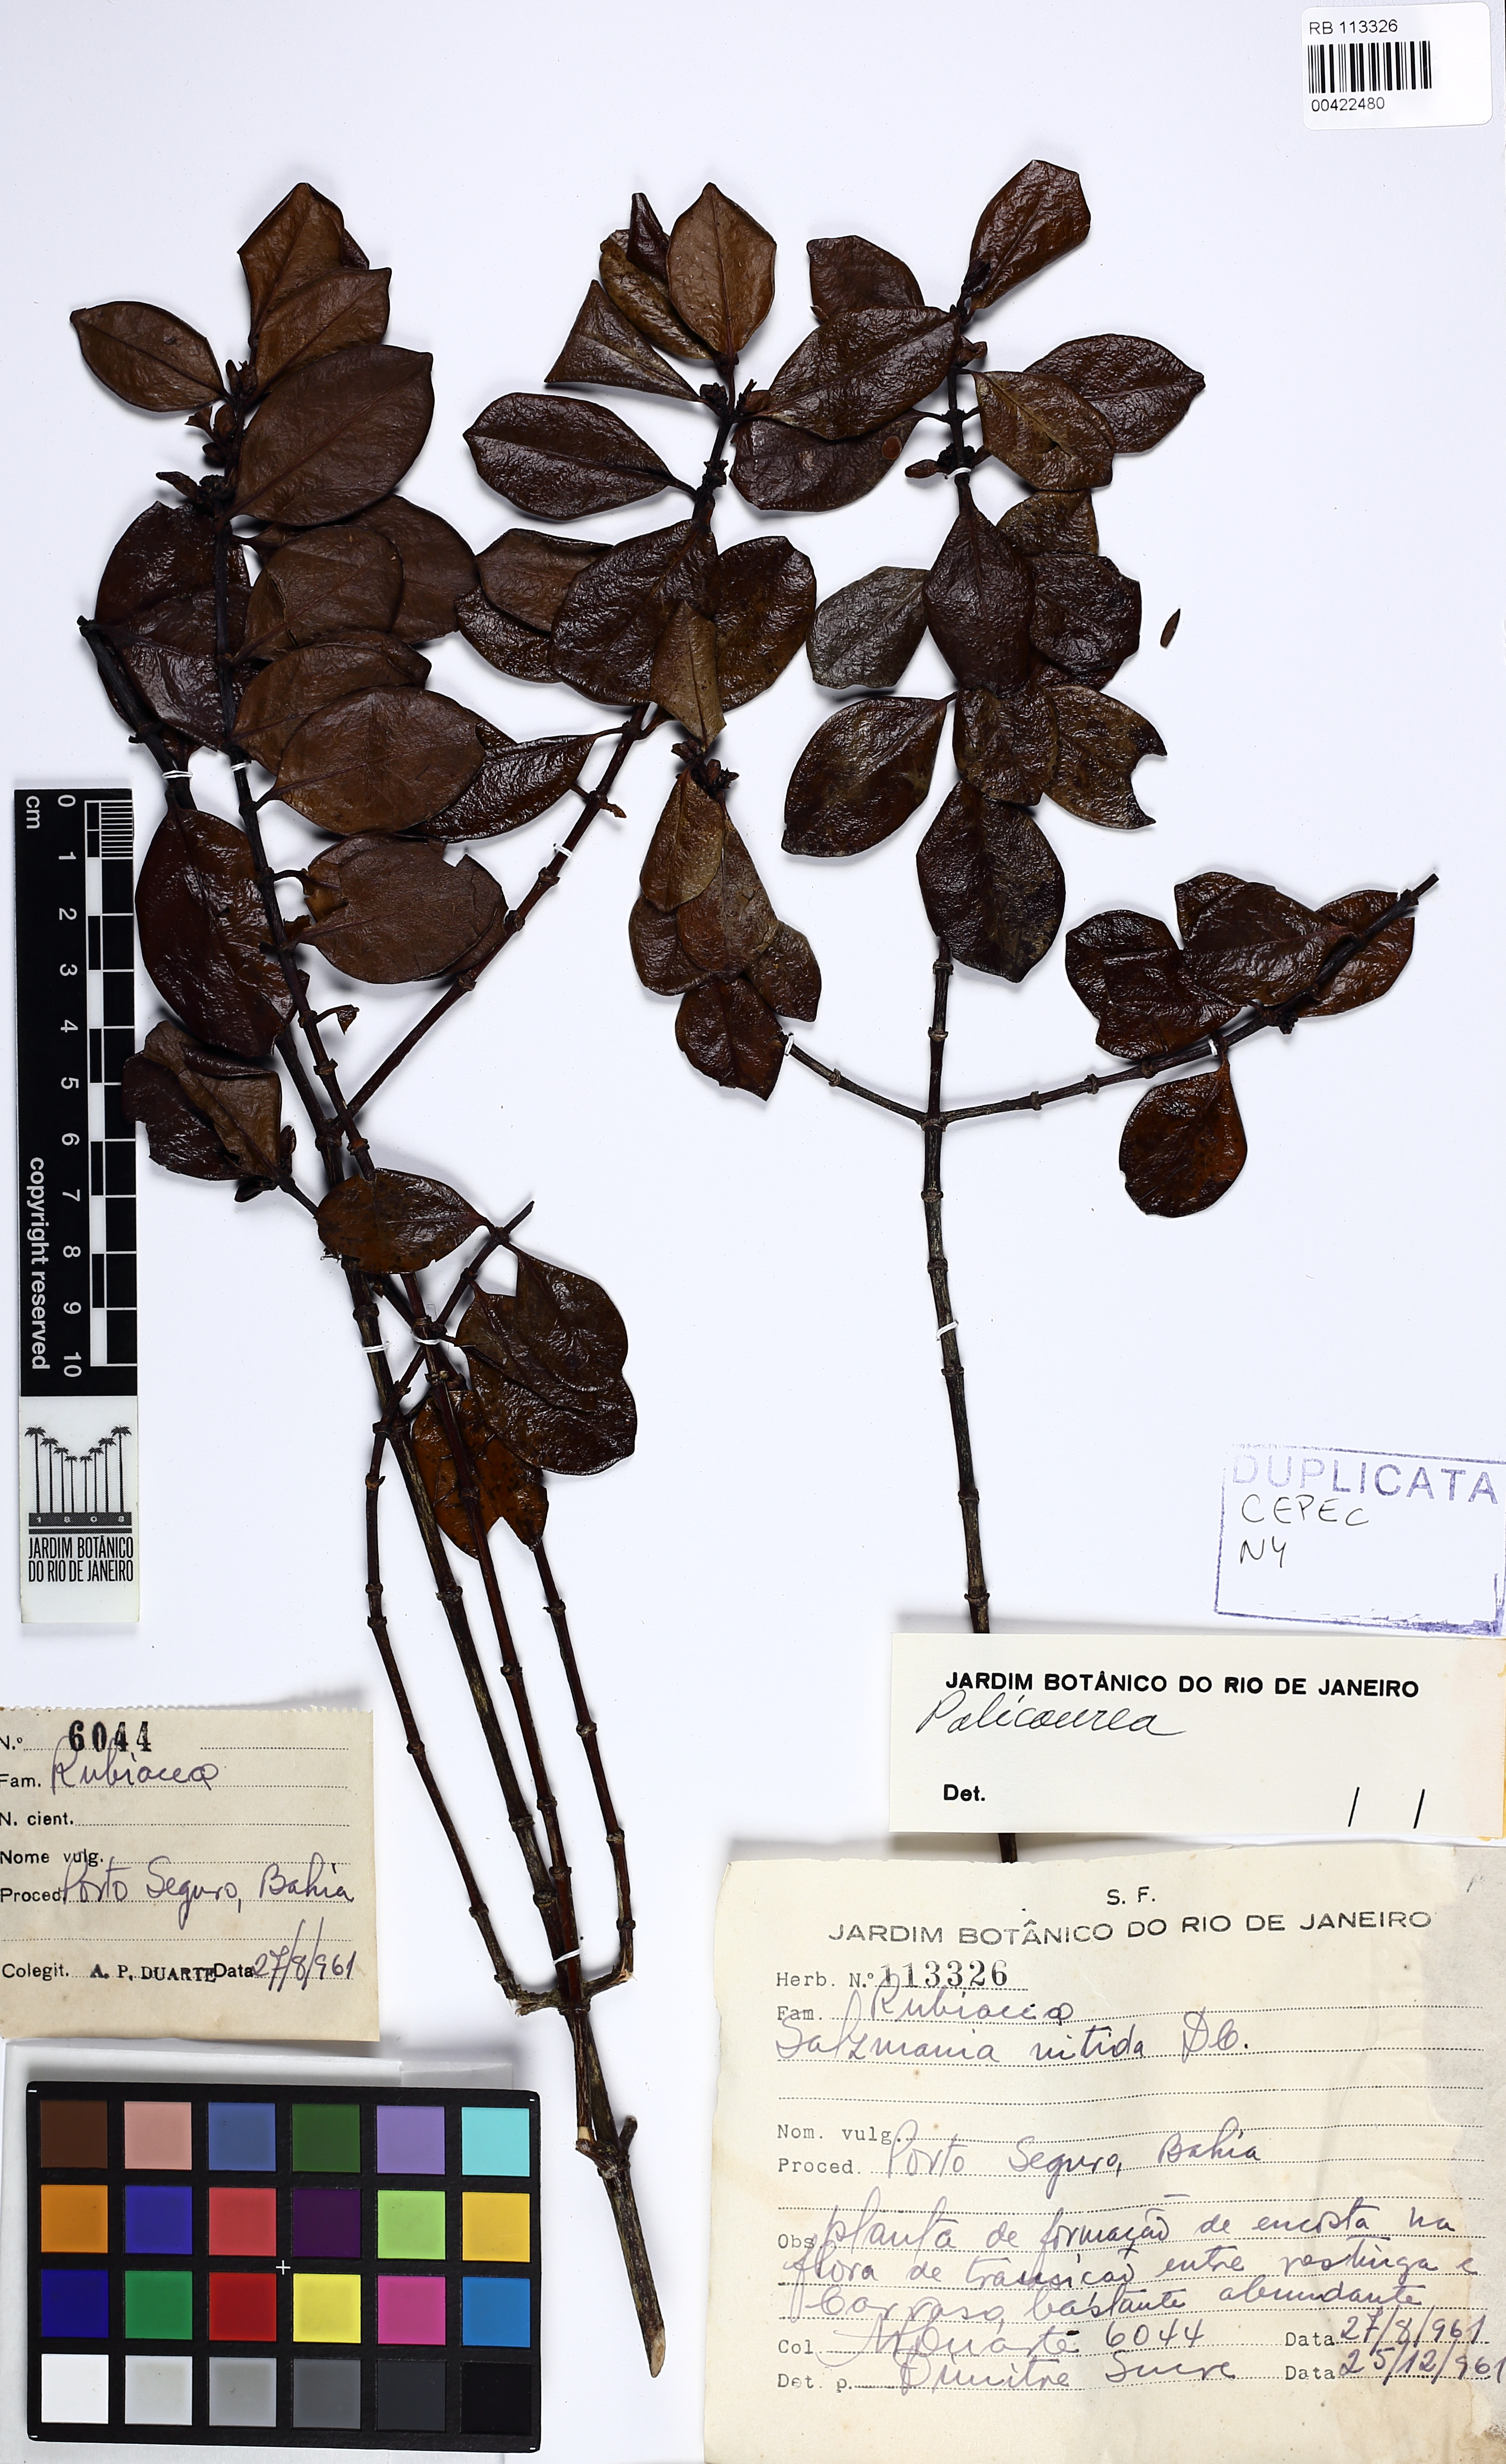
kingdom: Plantae
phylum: Tracheophyta
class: Magnoliopsida
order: Gentianales
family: Rubiaceae
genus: Salzmannia
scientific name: Salzmannia nitida
